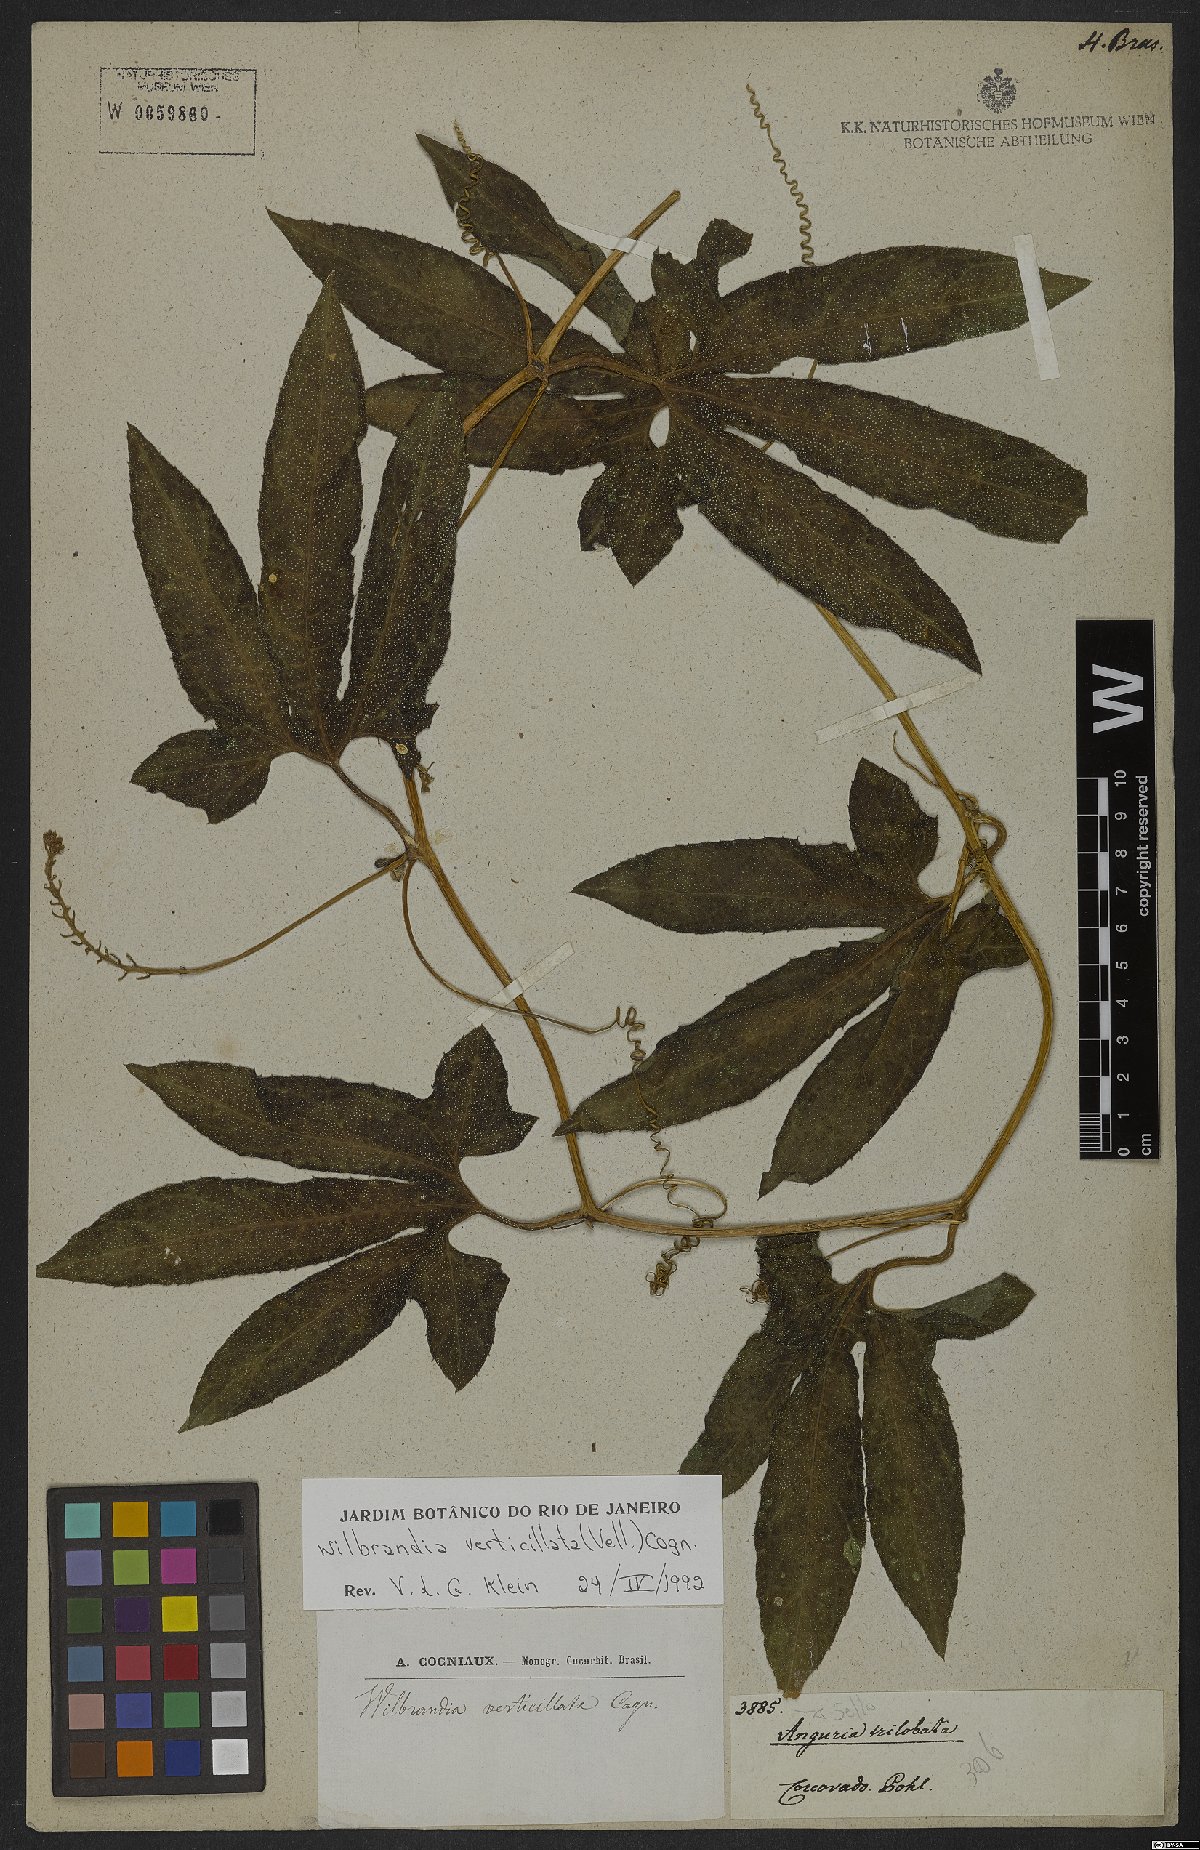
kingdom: Plantae
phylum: Tracheophyta
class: Magnoliopsida
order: Cucurbitales
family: Cucurbitaceae
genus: Wilbrandia
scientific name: Wilbrandia verticillata
